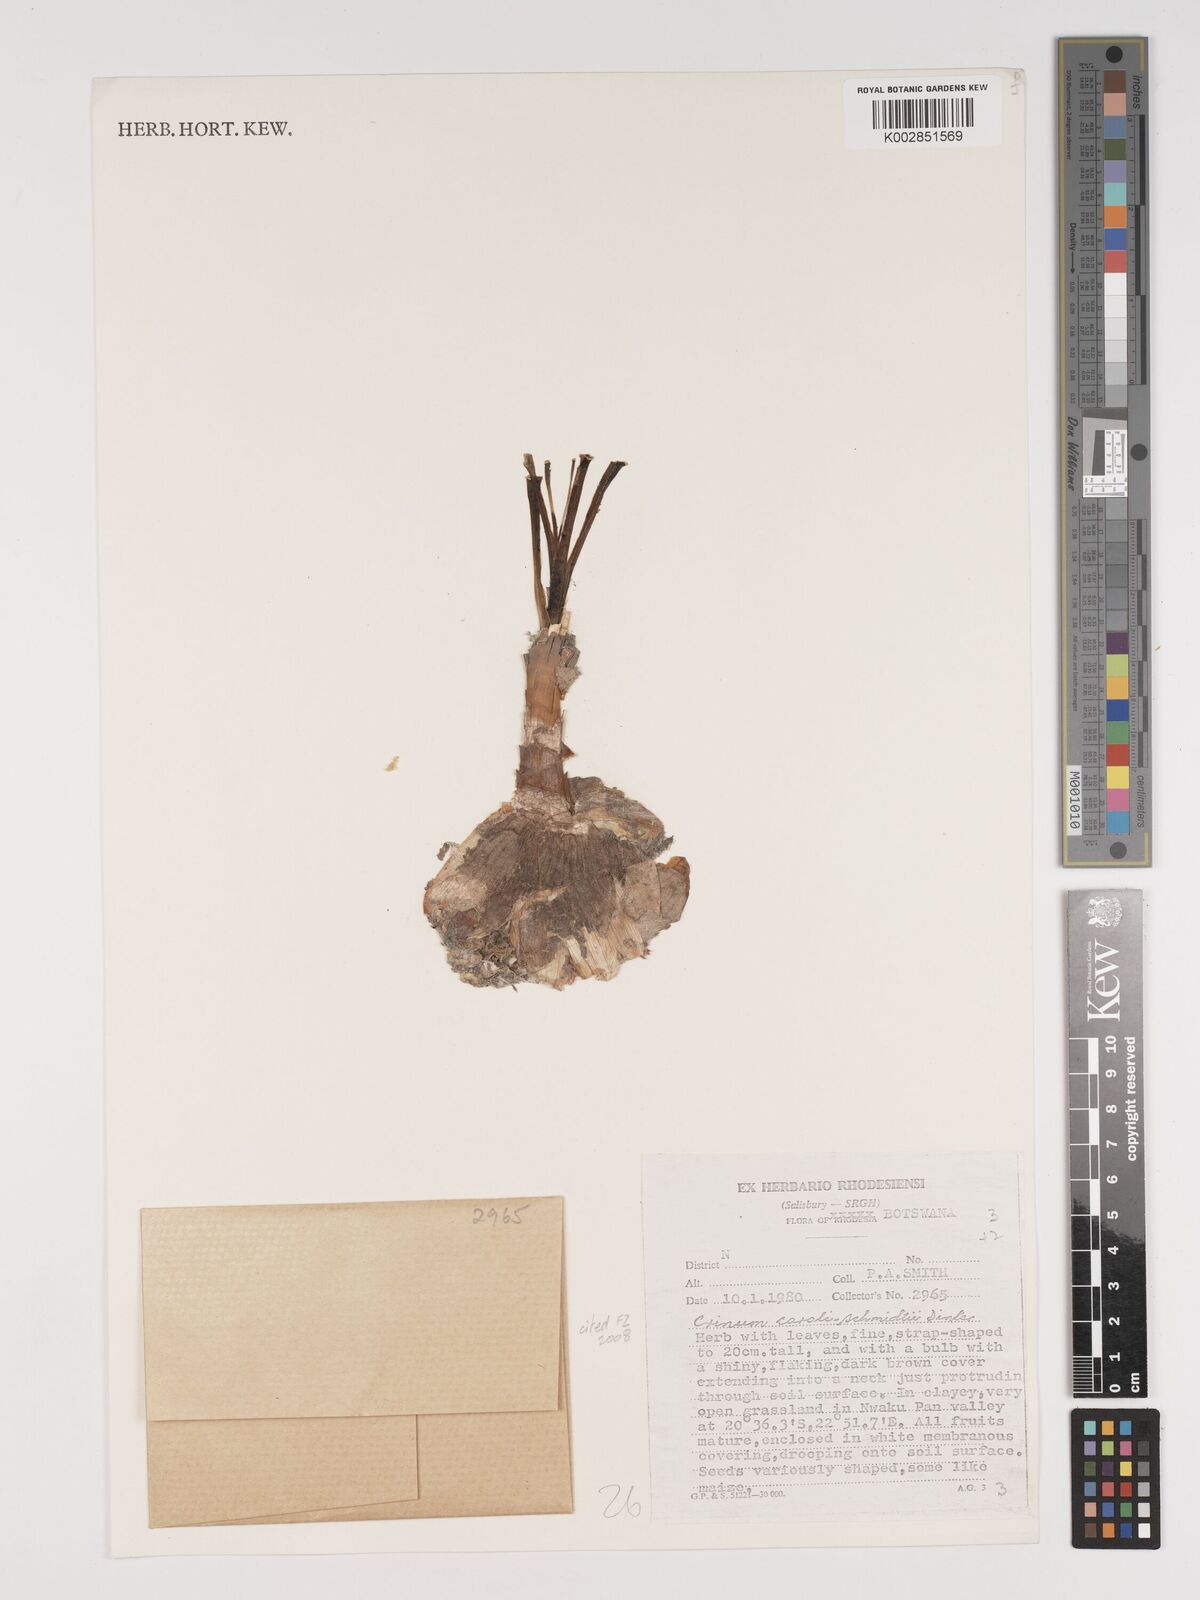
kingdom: Plantae
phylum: Tracheophyta
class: Liliopsida
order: Asparagales
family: Amaryllidaceae
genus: Crinum
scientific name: Crinum carolo-schmidtii
